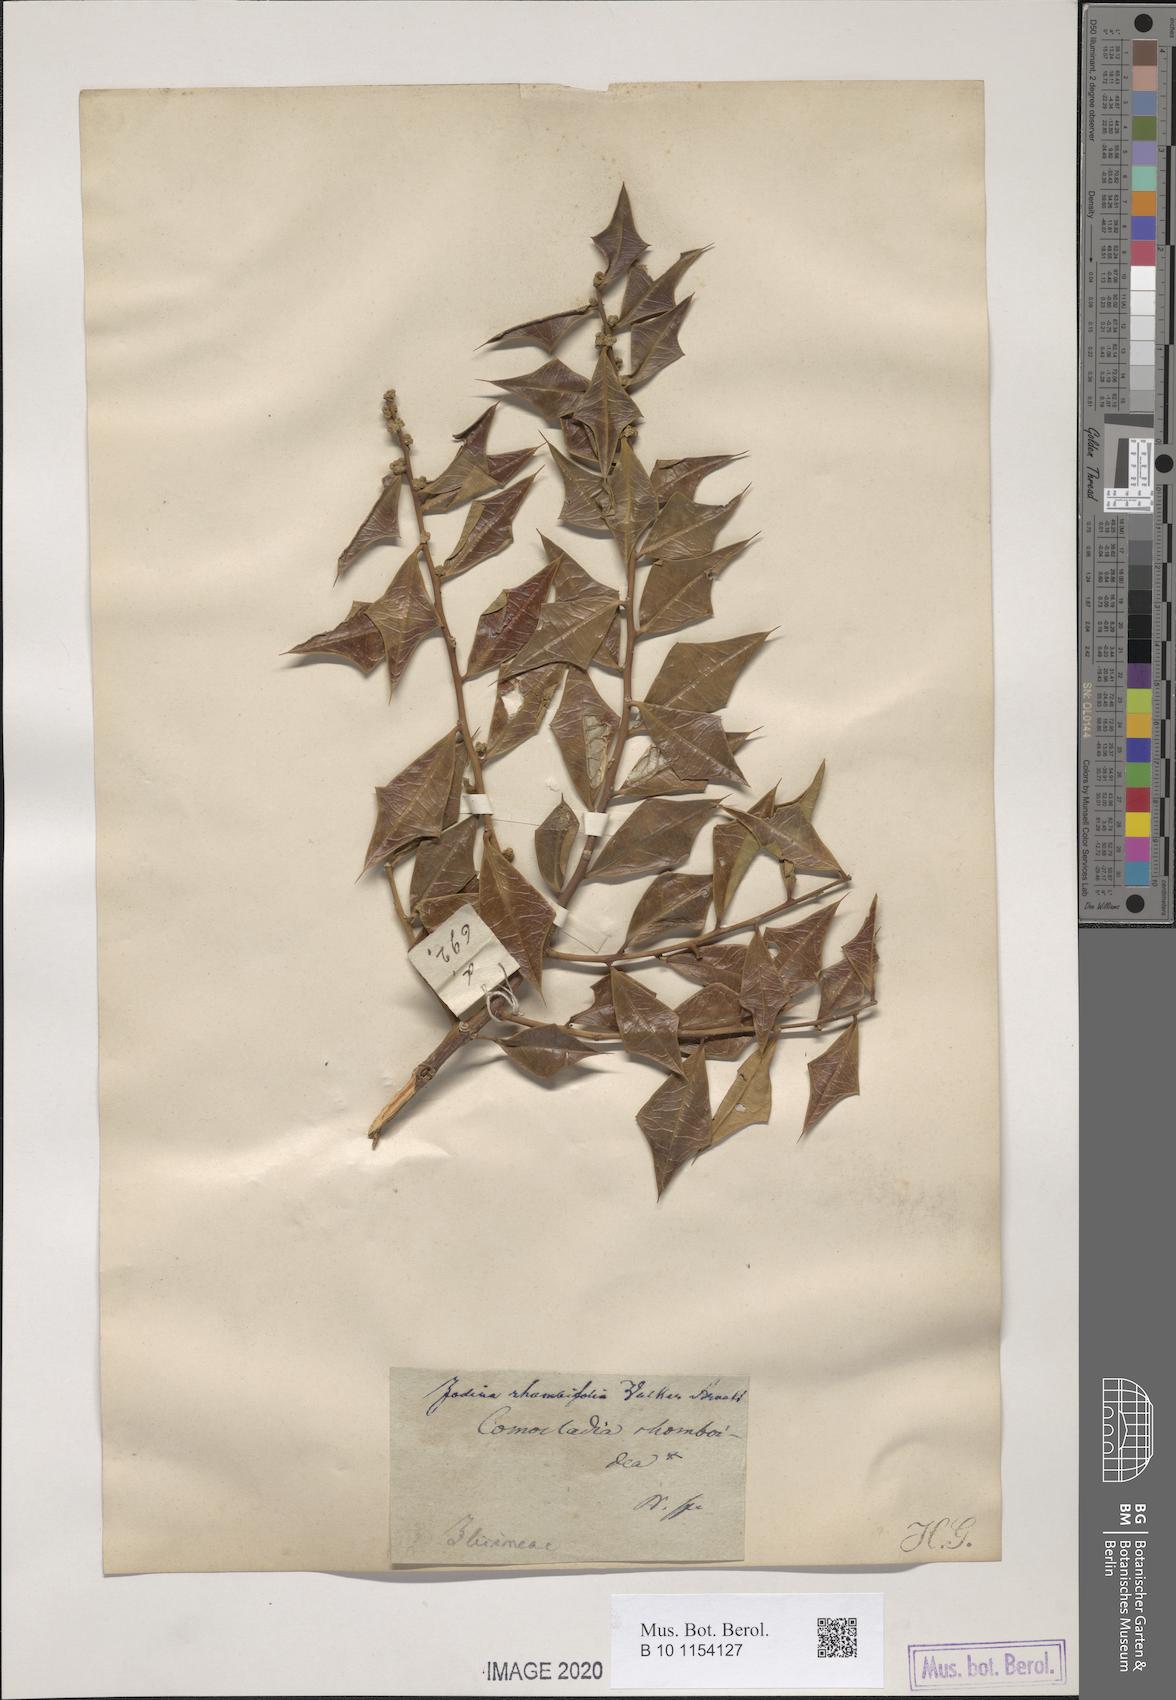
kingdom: Plantae
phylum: Tracheophyta
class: Magnoliopsida
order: Santalales
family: Cervantesiaceae
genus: Jodina
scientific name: Jodina rhombifolia
